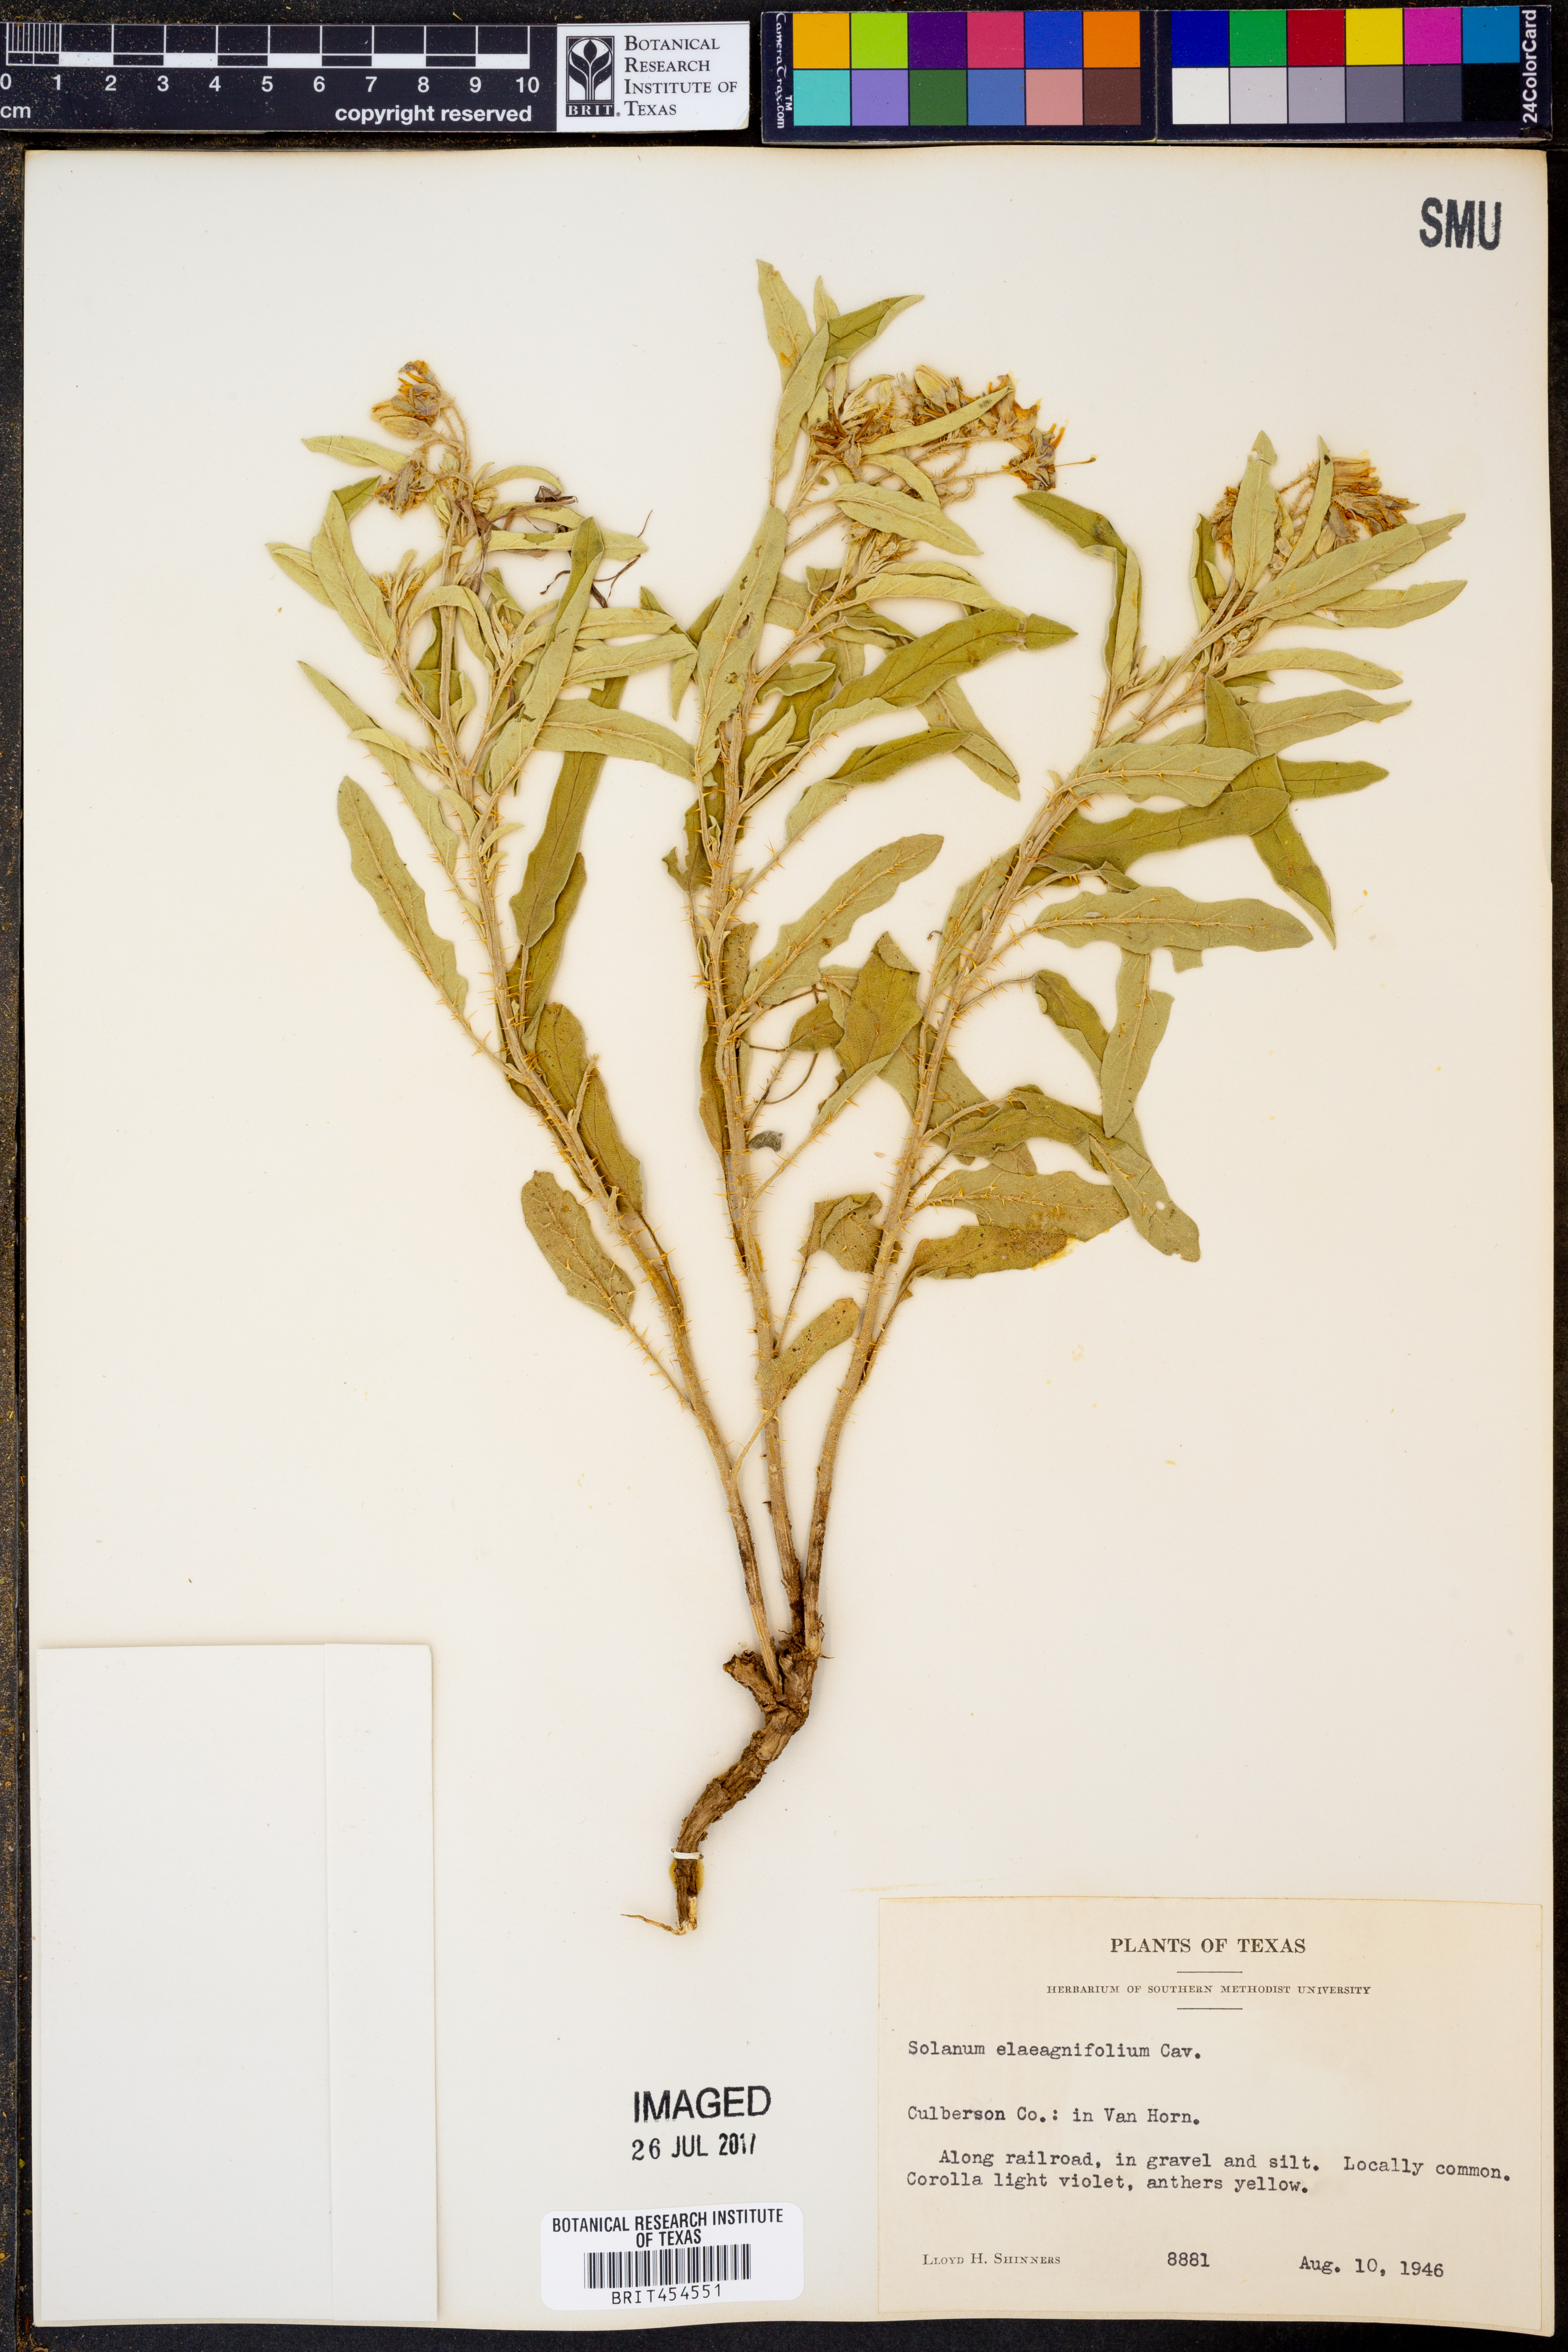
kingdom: Plantae
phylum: Tracheophyta
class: Magnoliopsida
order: Solanales
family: Solanaceae
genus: Solanum
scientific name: Solanum elaeagnifolium
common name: Silverleaf nightshade
